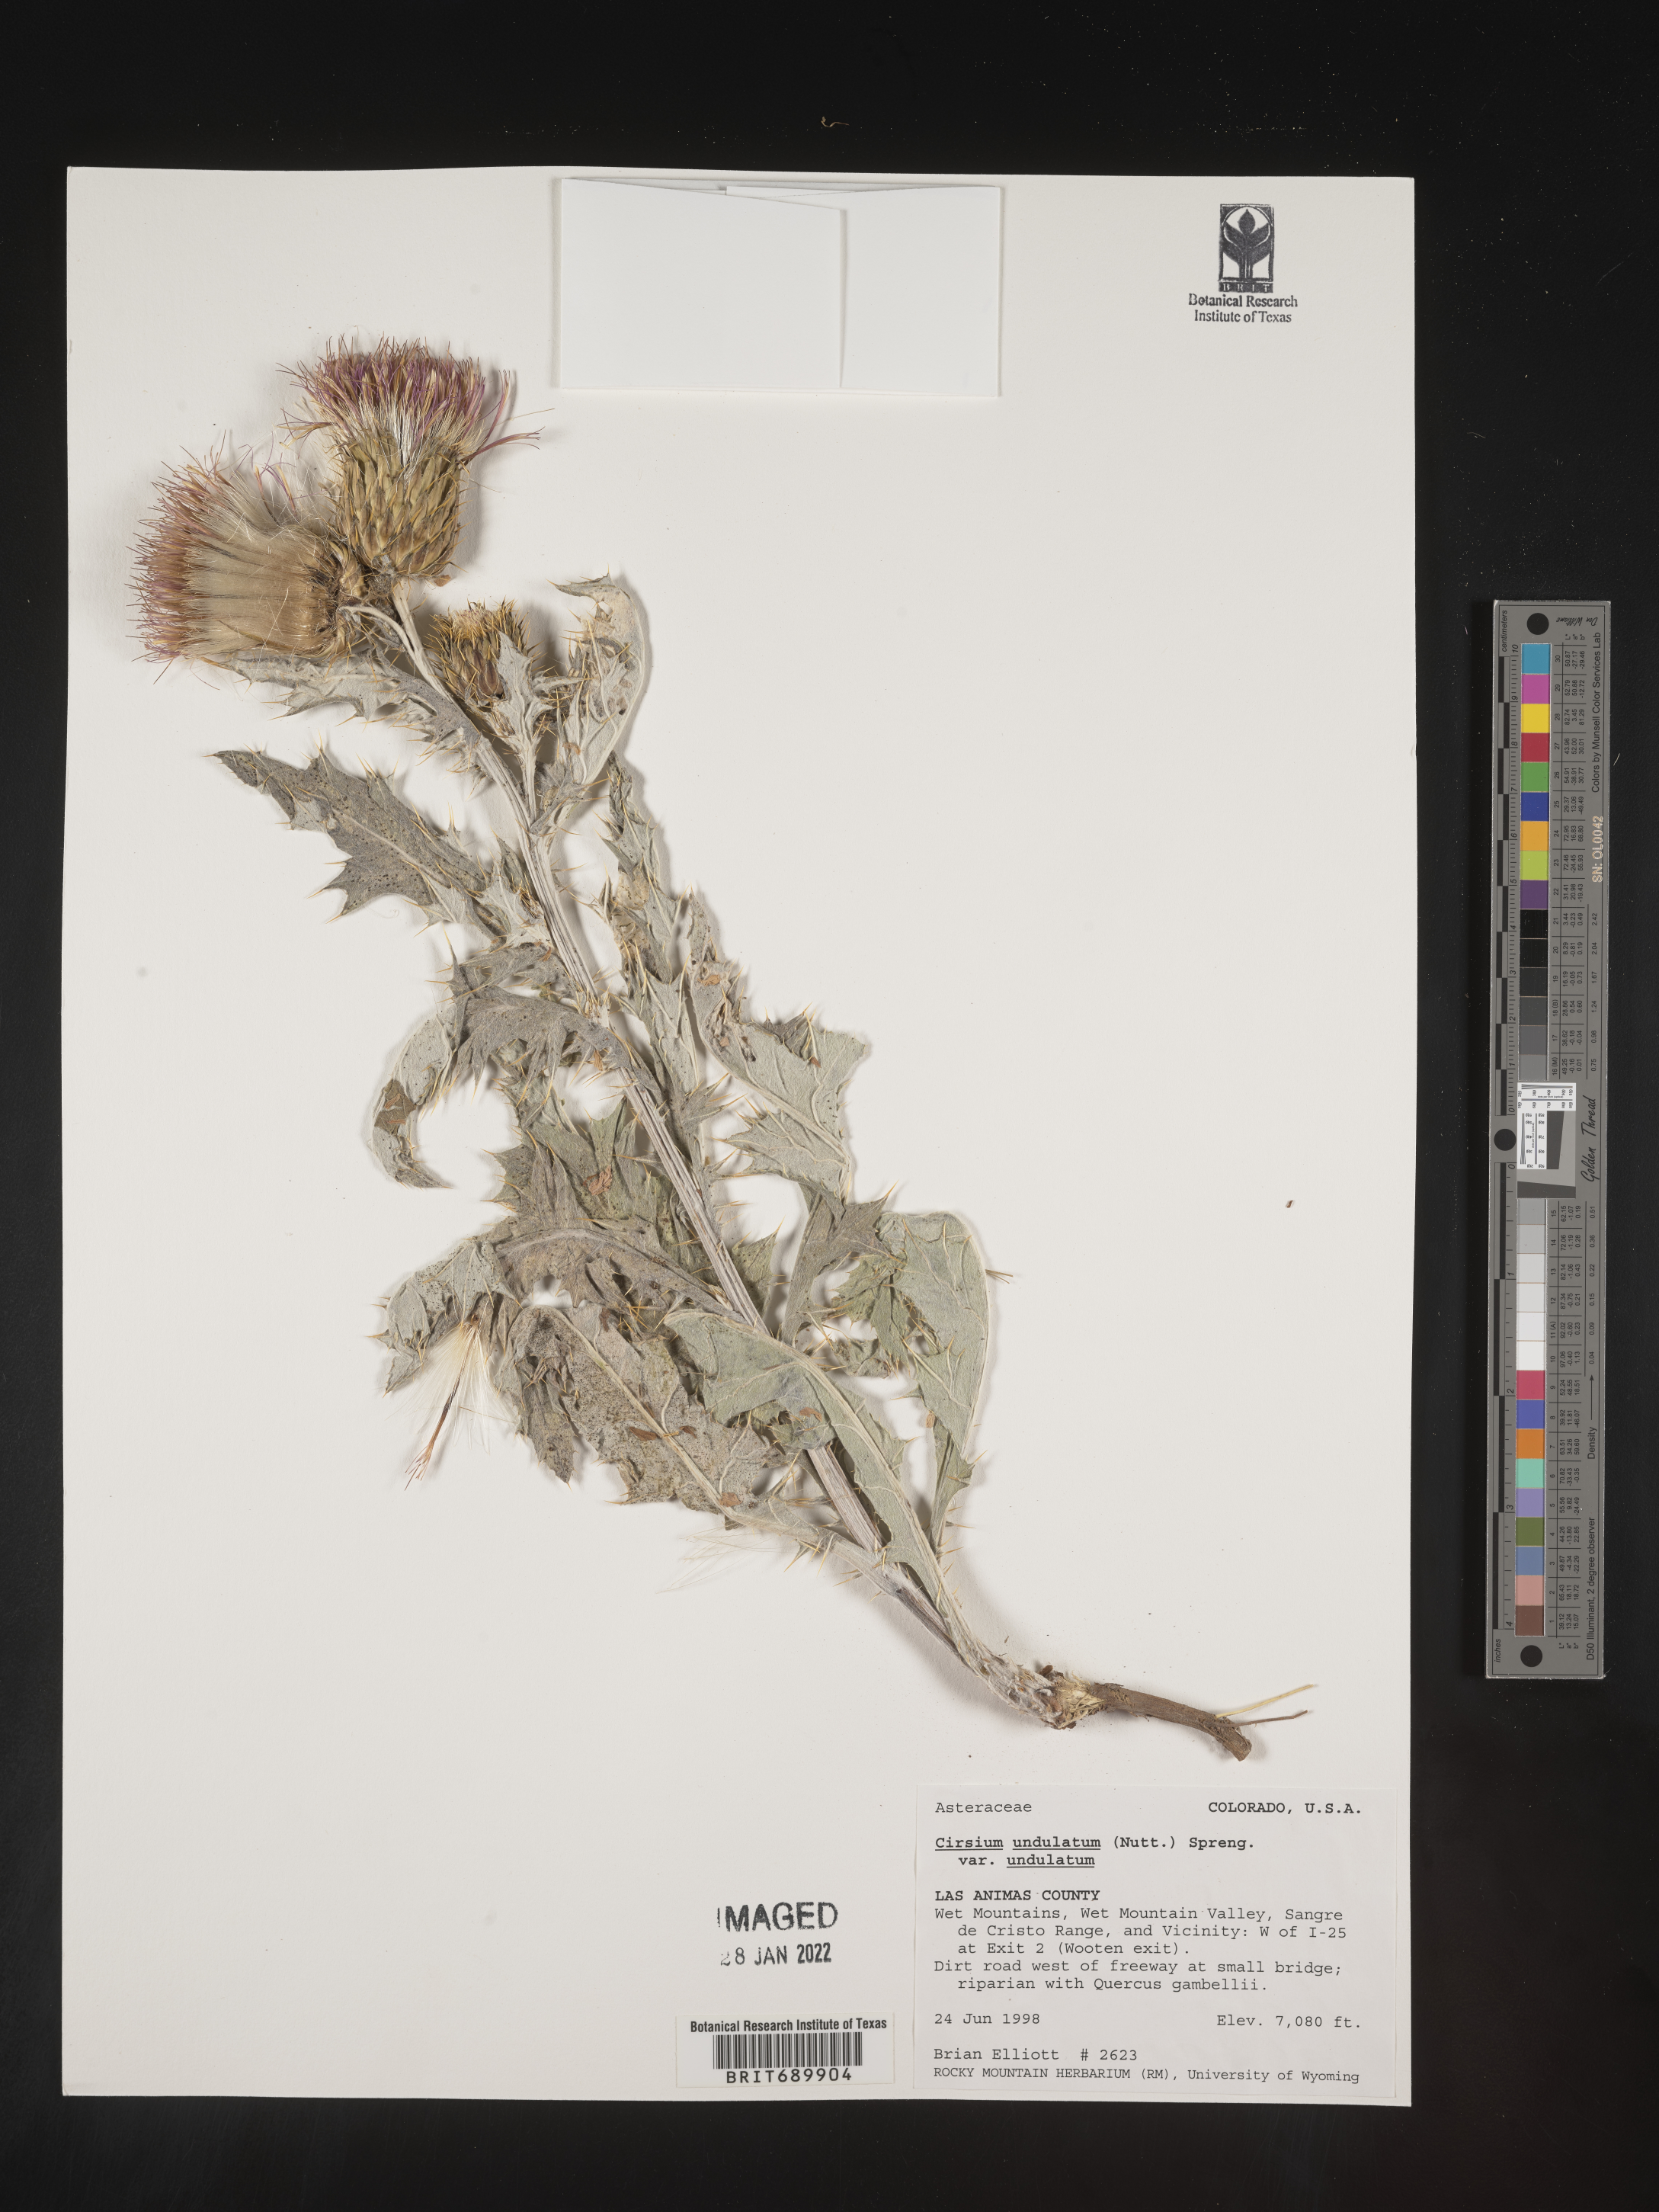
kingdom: Plantae
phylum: Tracheophyta
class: Magnoliopsida
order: Asterales
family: Asteraceae
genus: Cirsium
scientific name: Cirsium undulatum
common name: Pasture thistle
